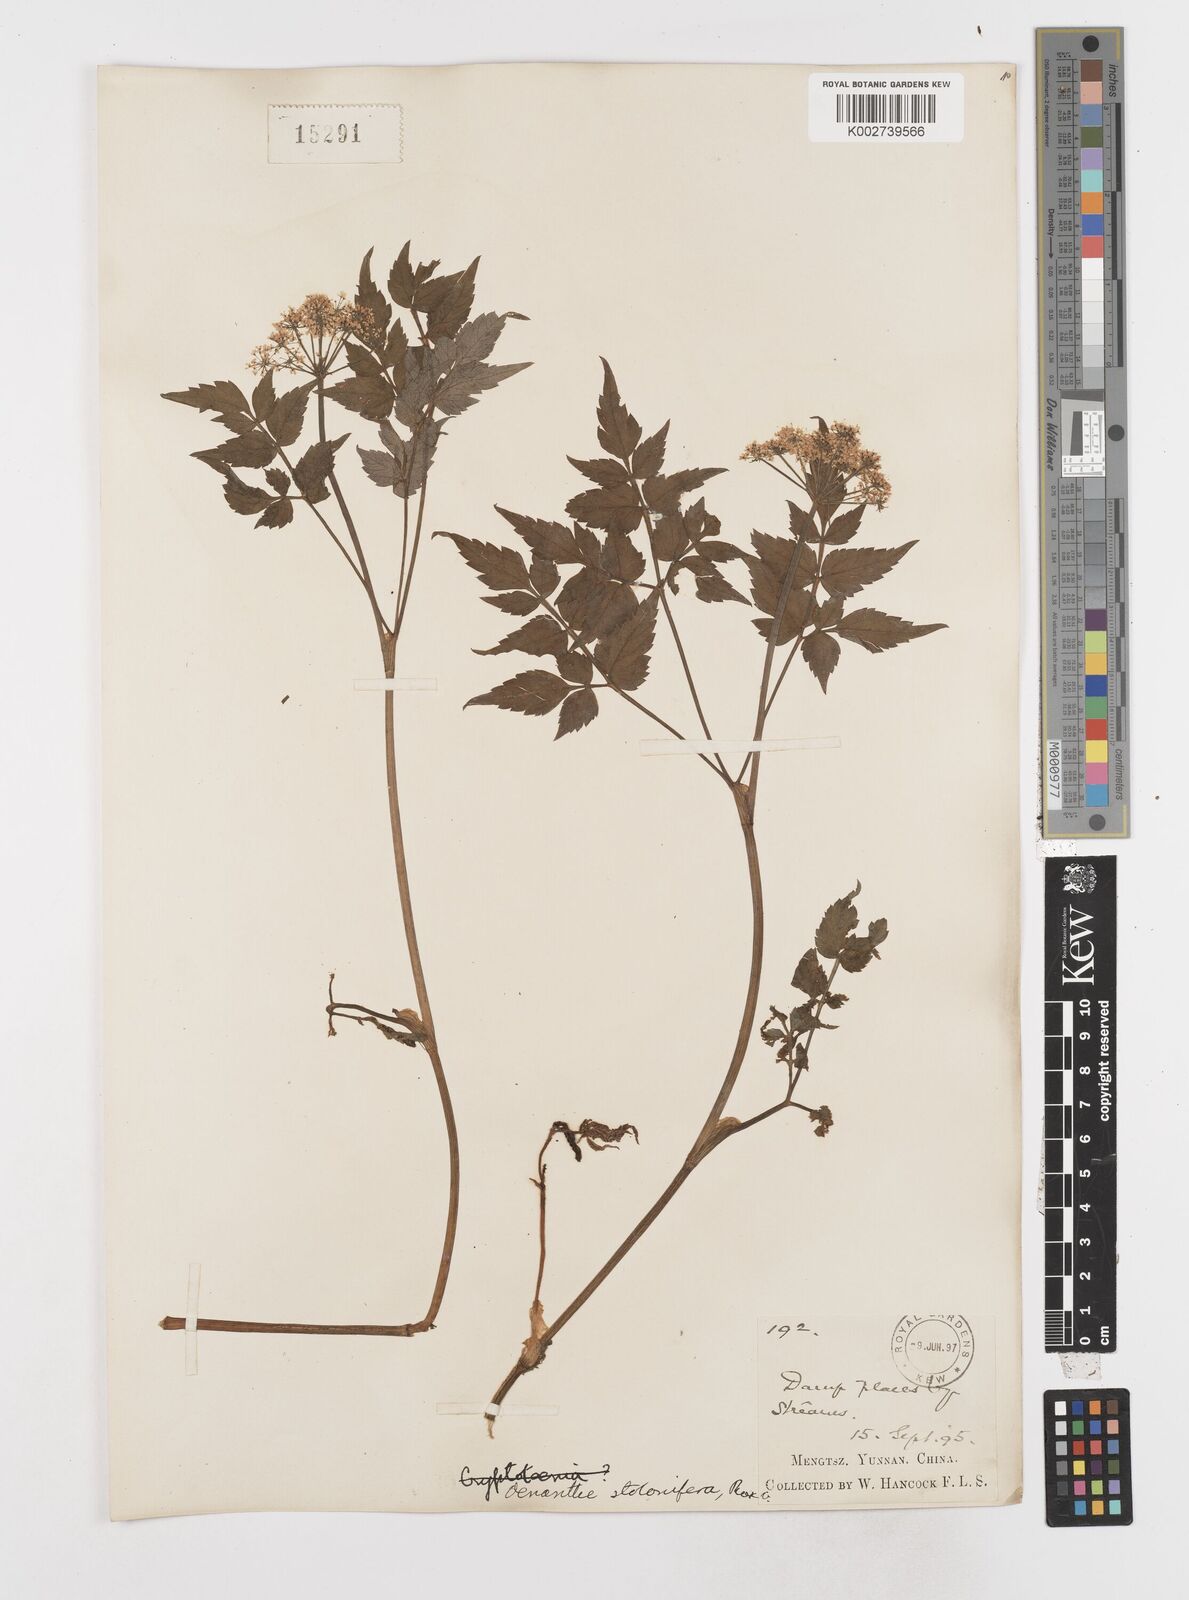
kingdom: Plantae
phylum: Tracheophyta
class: Magnoliopsida
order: Apiales
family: Apiaceae
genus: Oenanthe
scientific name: Oenanthe javanica
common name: Java water-dropwort
